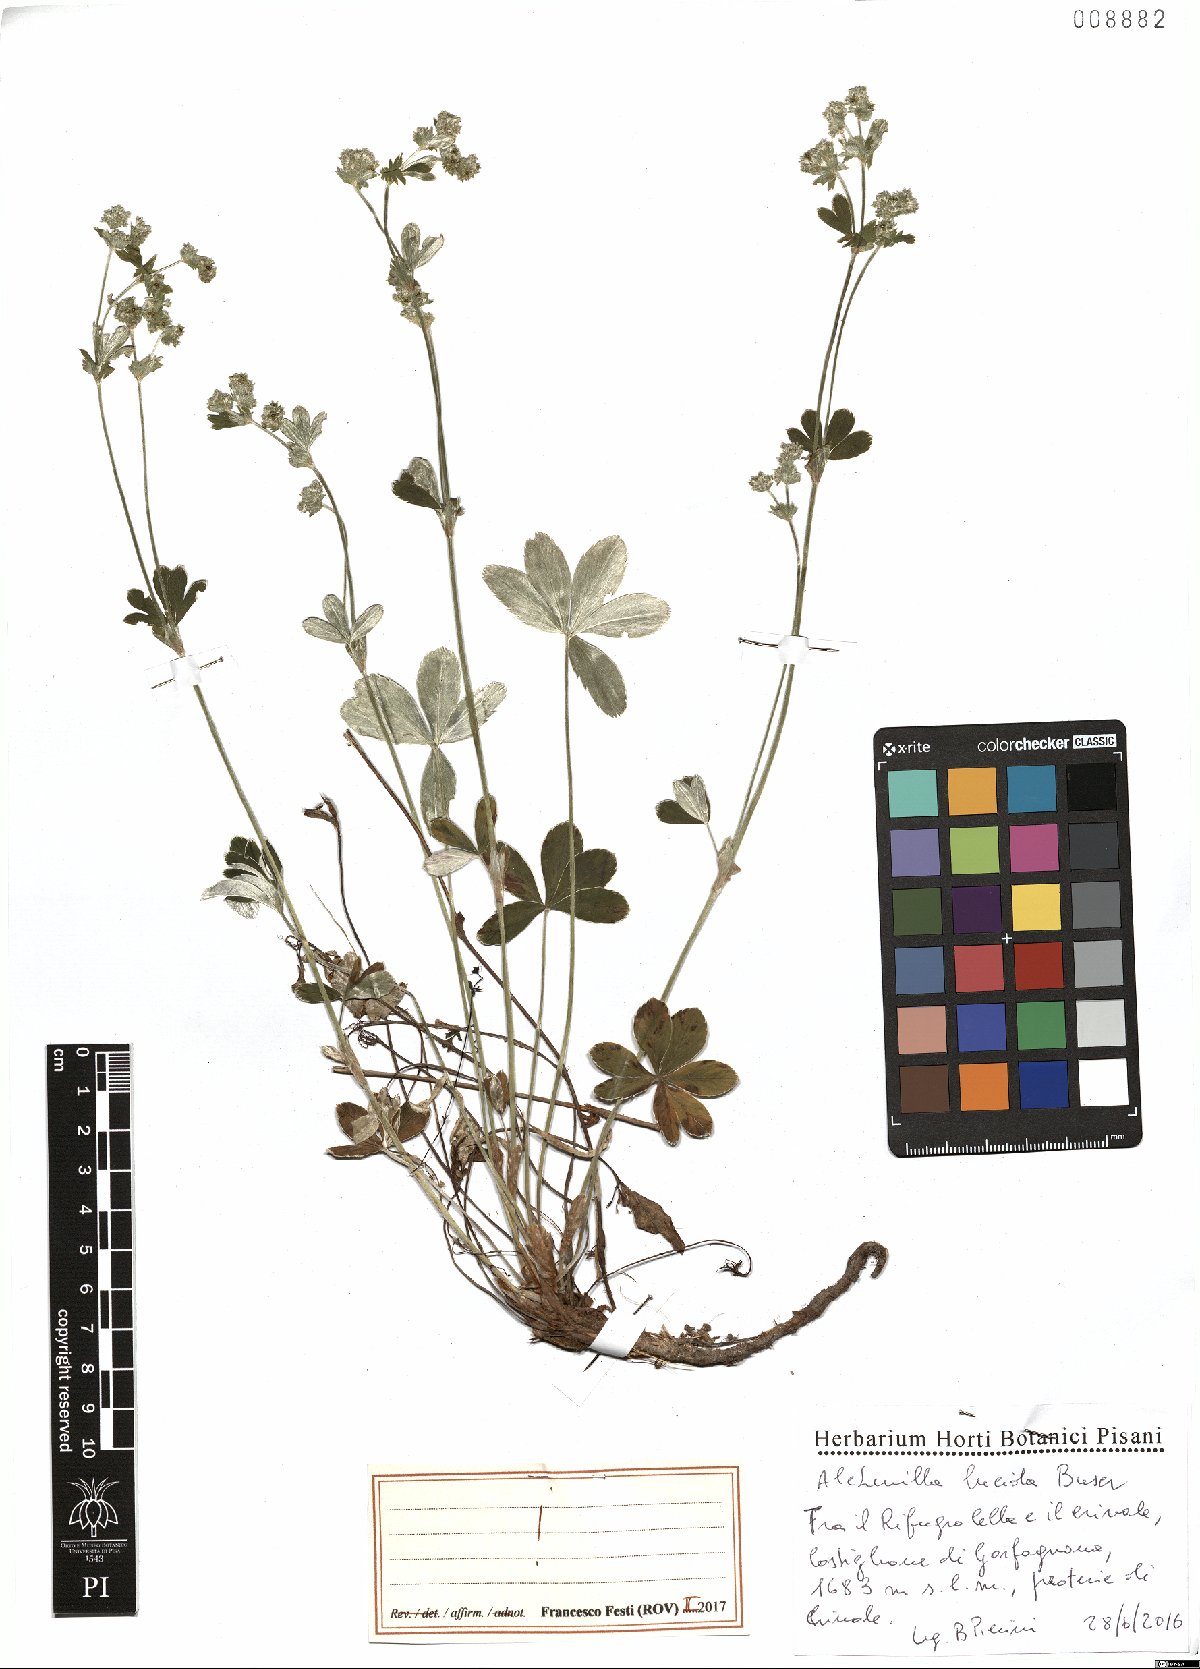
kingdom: Plantae
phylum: Tracheophyta
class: Magnoliopsida
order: Rosales
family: Rosaceae
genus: Alchemilla
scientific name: Alchemilla lucida
